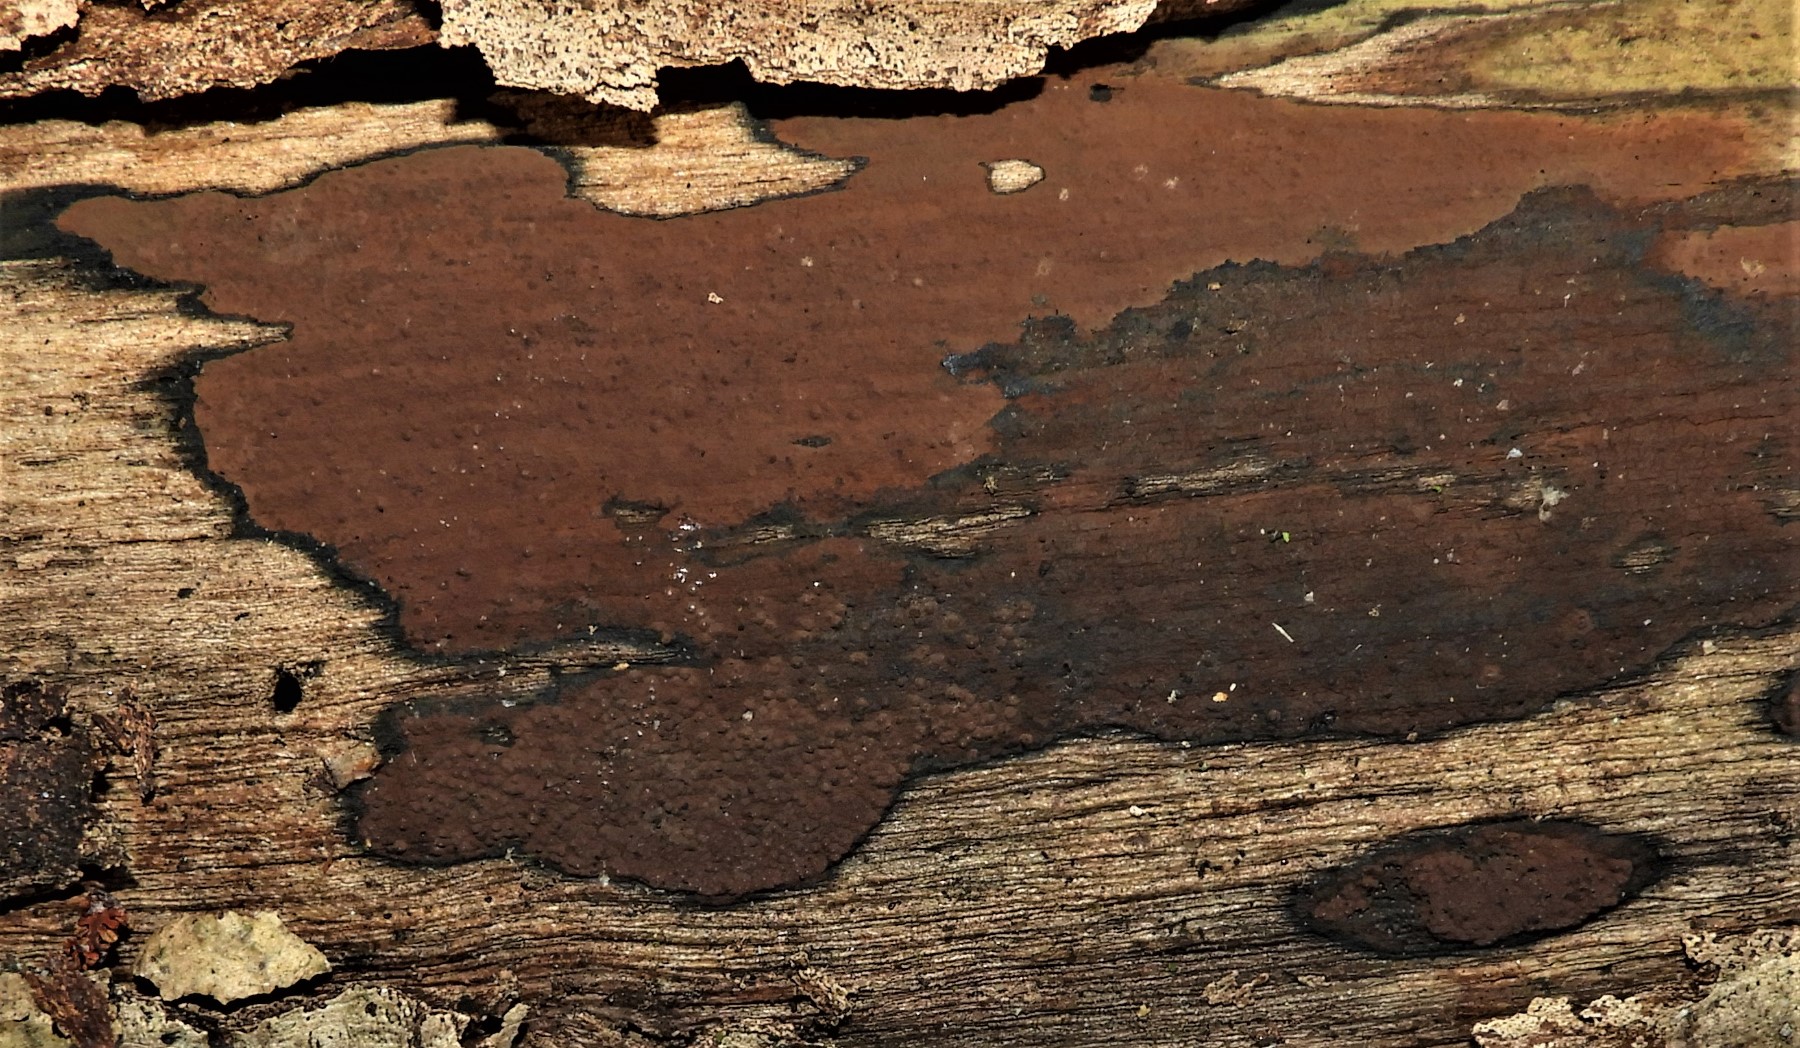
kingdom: Fungi
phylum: Ascomycota
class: Sordariomycetes
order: Xylariales
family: Hypoxylaceae
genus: Hypoxylon
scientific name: Hypoxylon petriniae
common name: nedsænket kulbær
